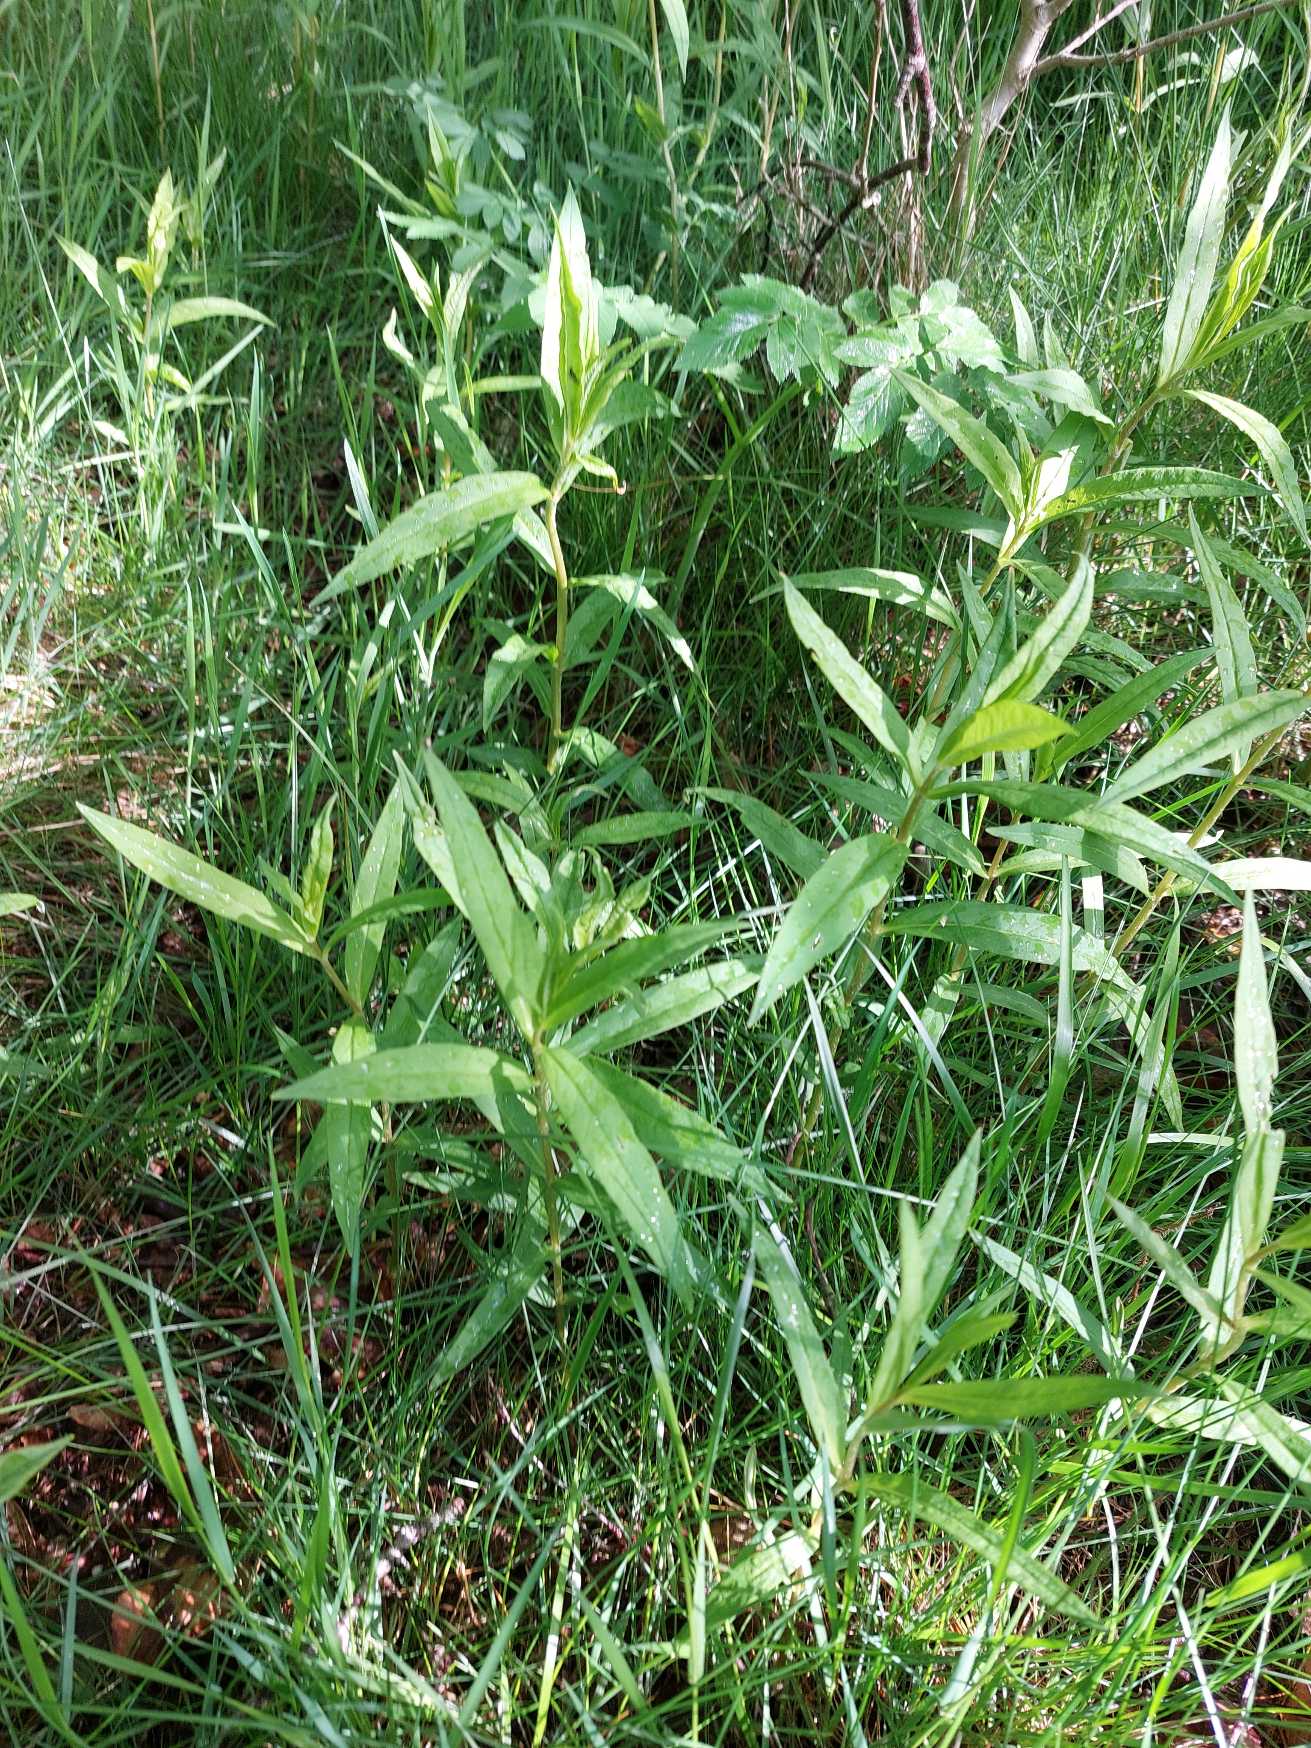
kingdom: Plantae
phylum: Tracheophyta
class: Magnoliopsida
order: Ericales
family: Primulaceae
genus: Lysimachia
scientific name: Lysimachia thyrsiflora
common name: Dusk-fredløs
